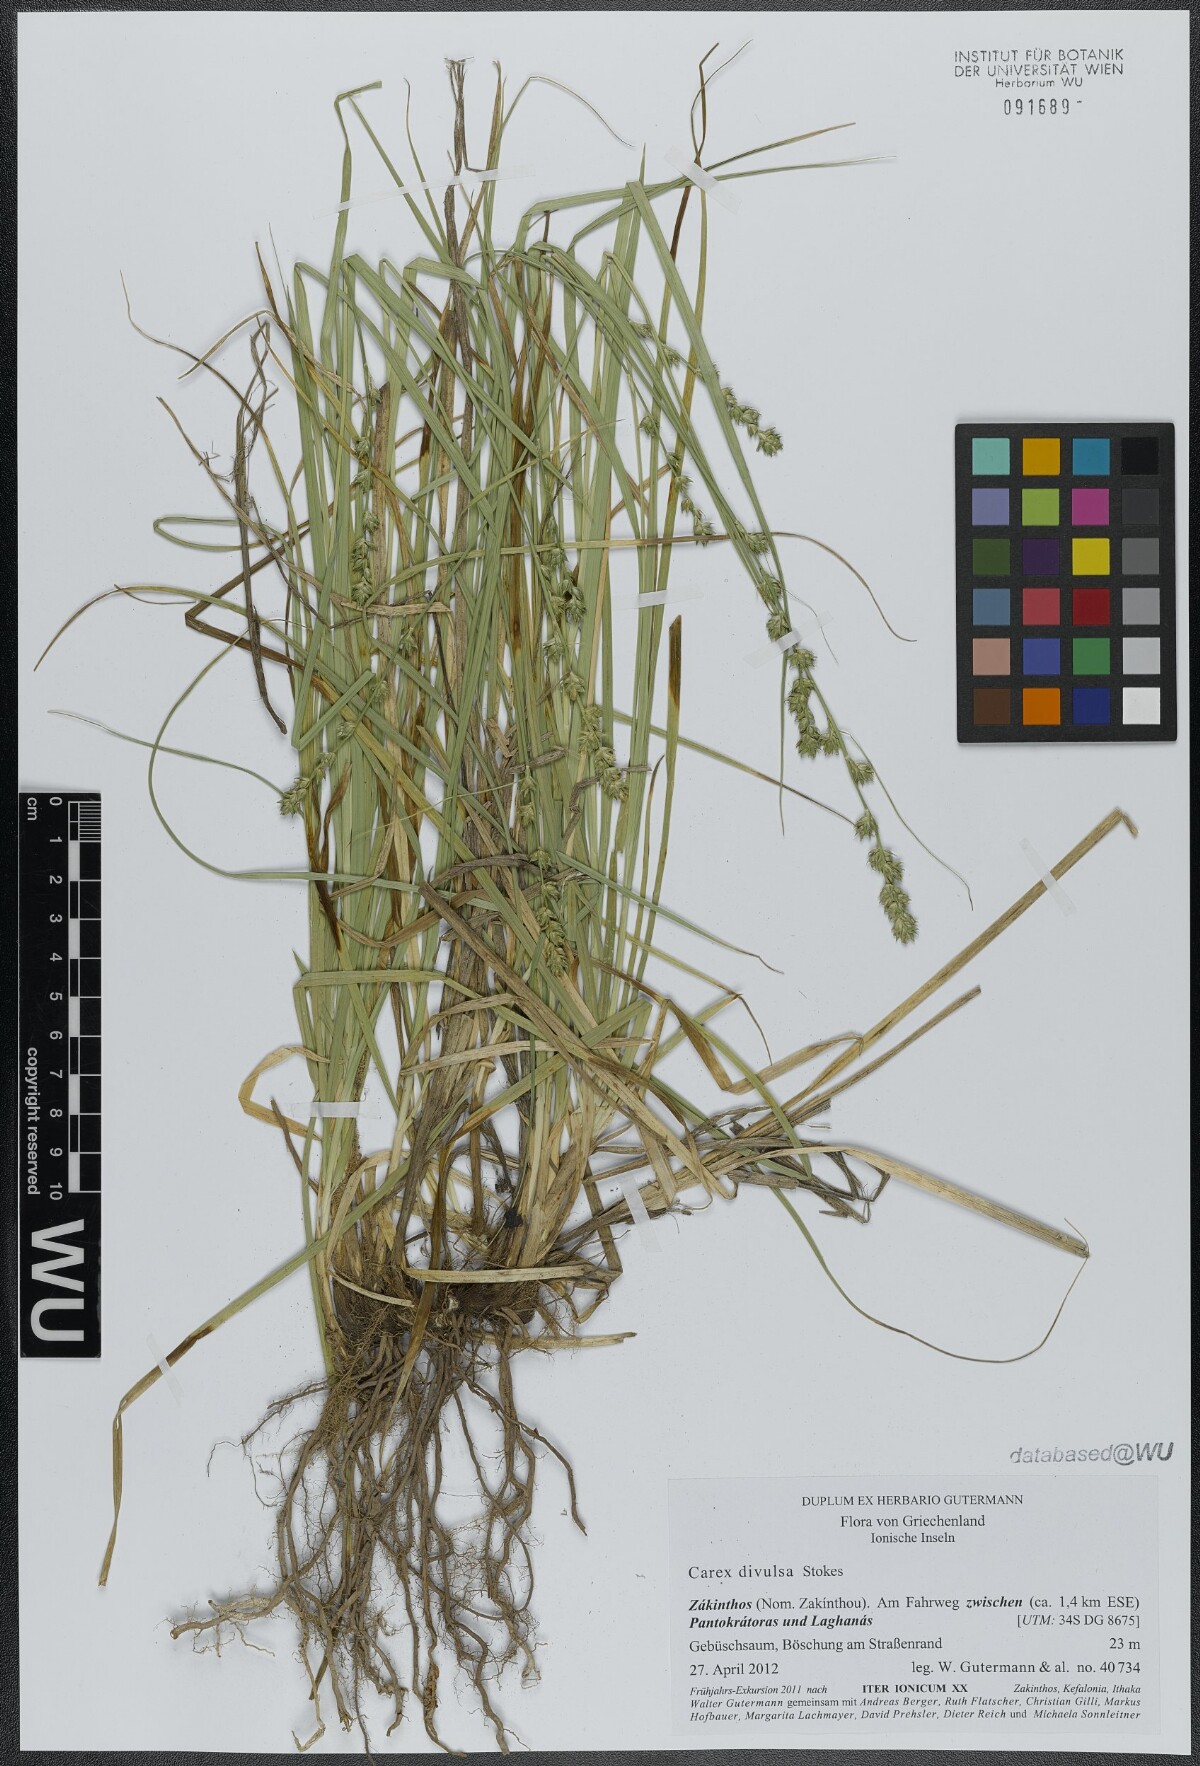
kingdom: Plantae
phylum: Tracheophyta
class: Liliopsida
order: Poales
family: Cyperaceae
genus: Carex
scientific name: Carex divulsa
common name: Grassland sedge
